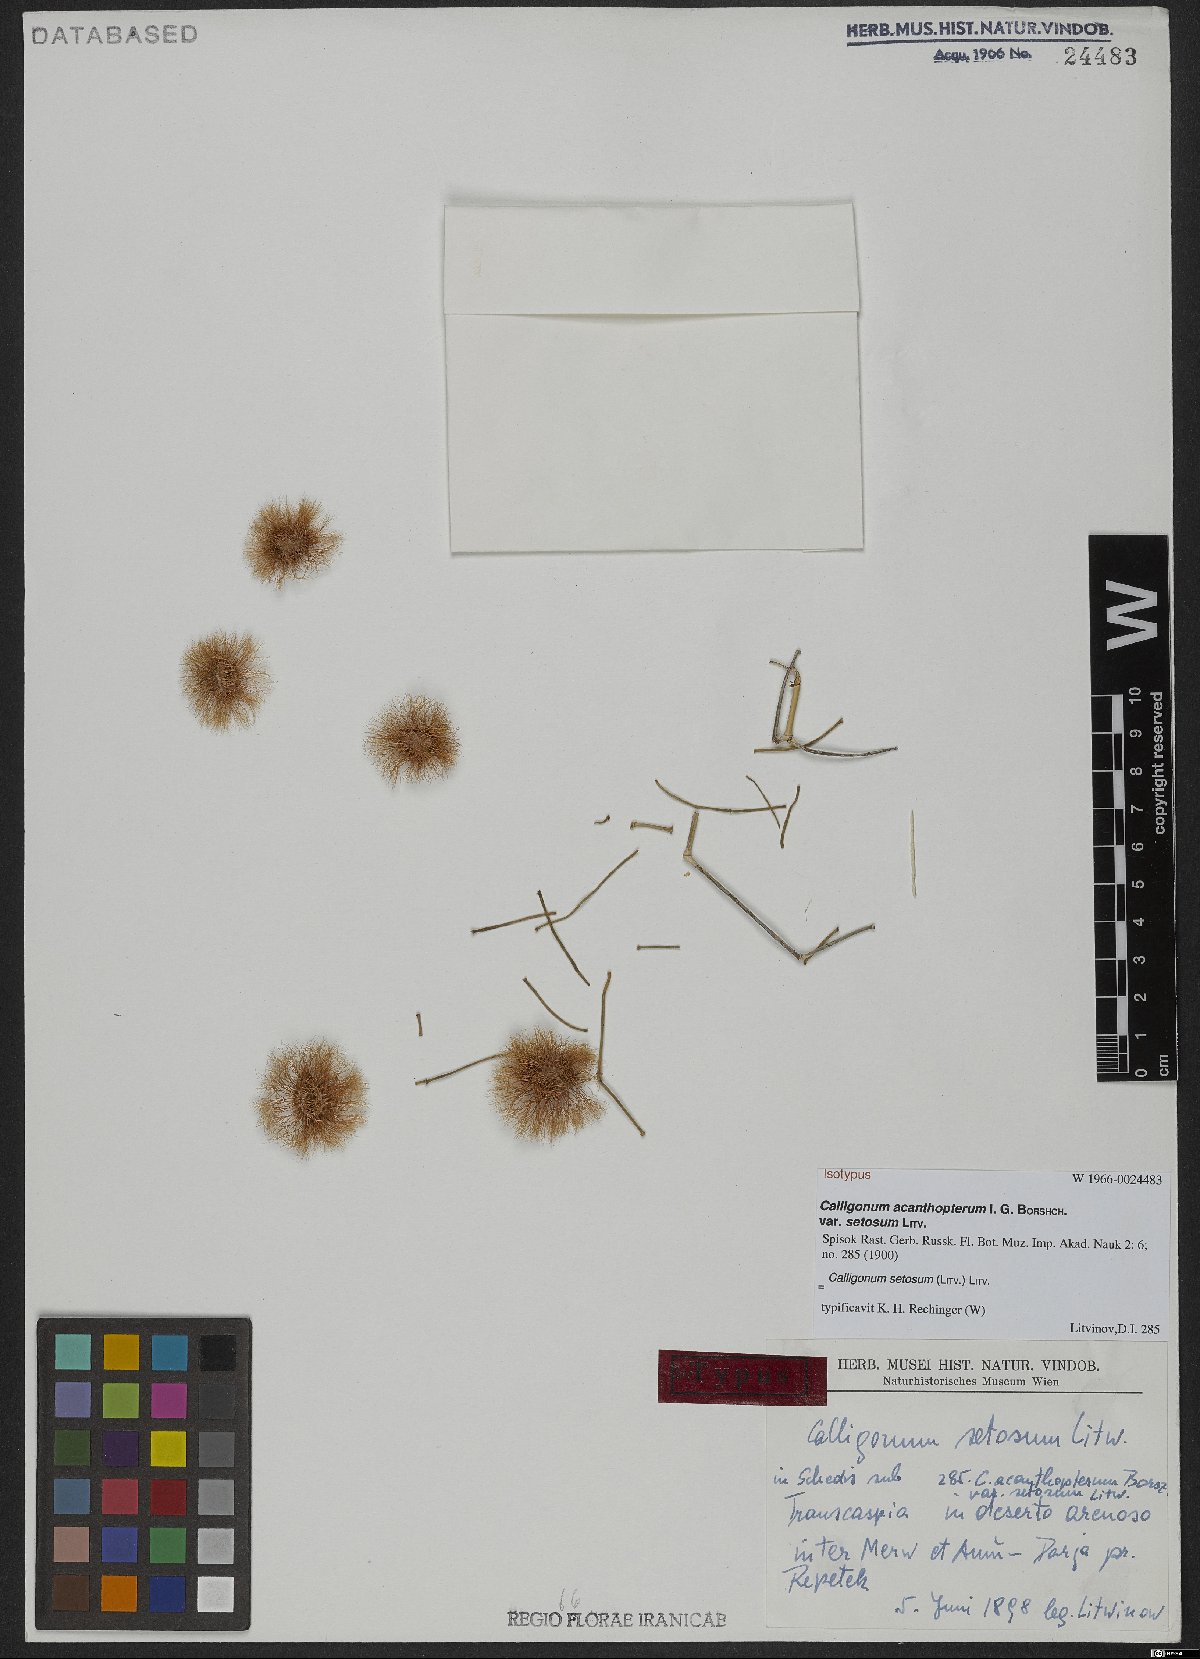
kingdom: Plantae
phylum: Tracheophyta
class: Magnoliopsida
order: Caryophyllales
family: Polygonaceae
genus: Calligonum
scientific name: Calligonum setosum
